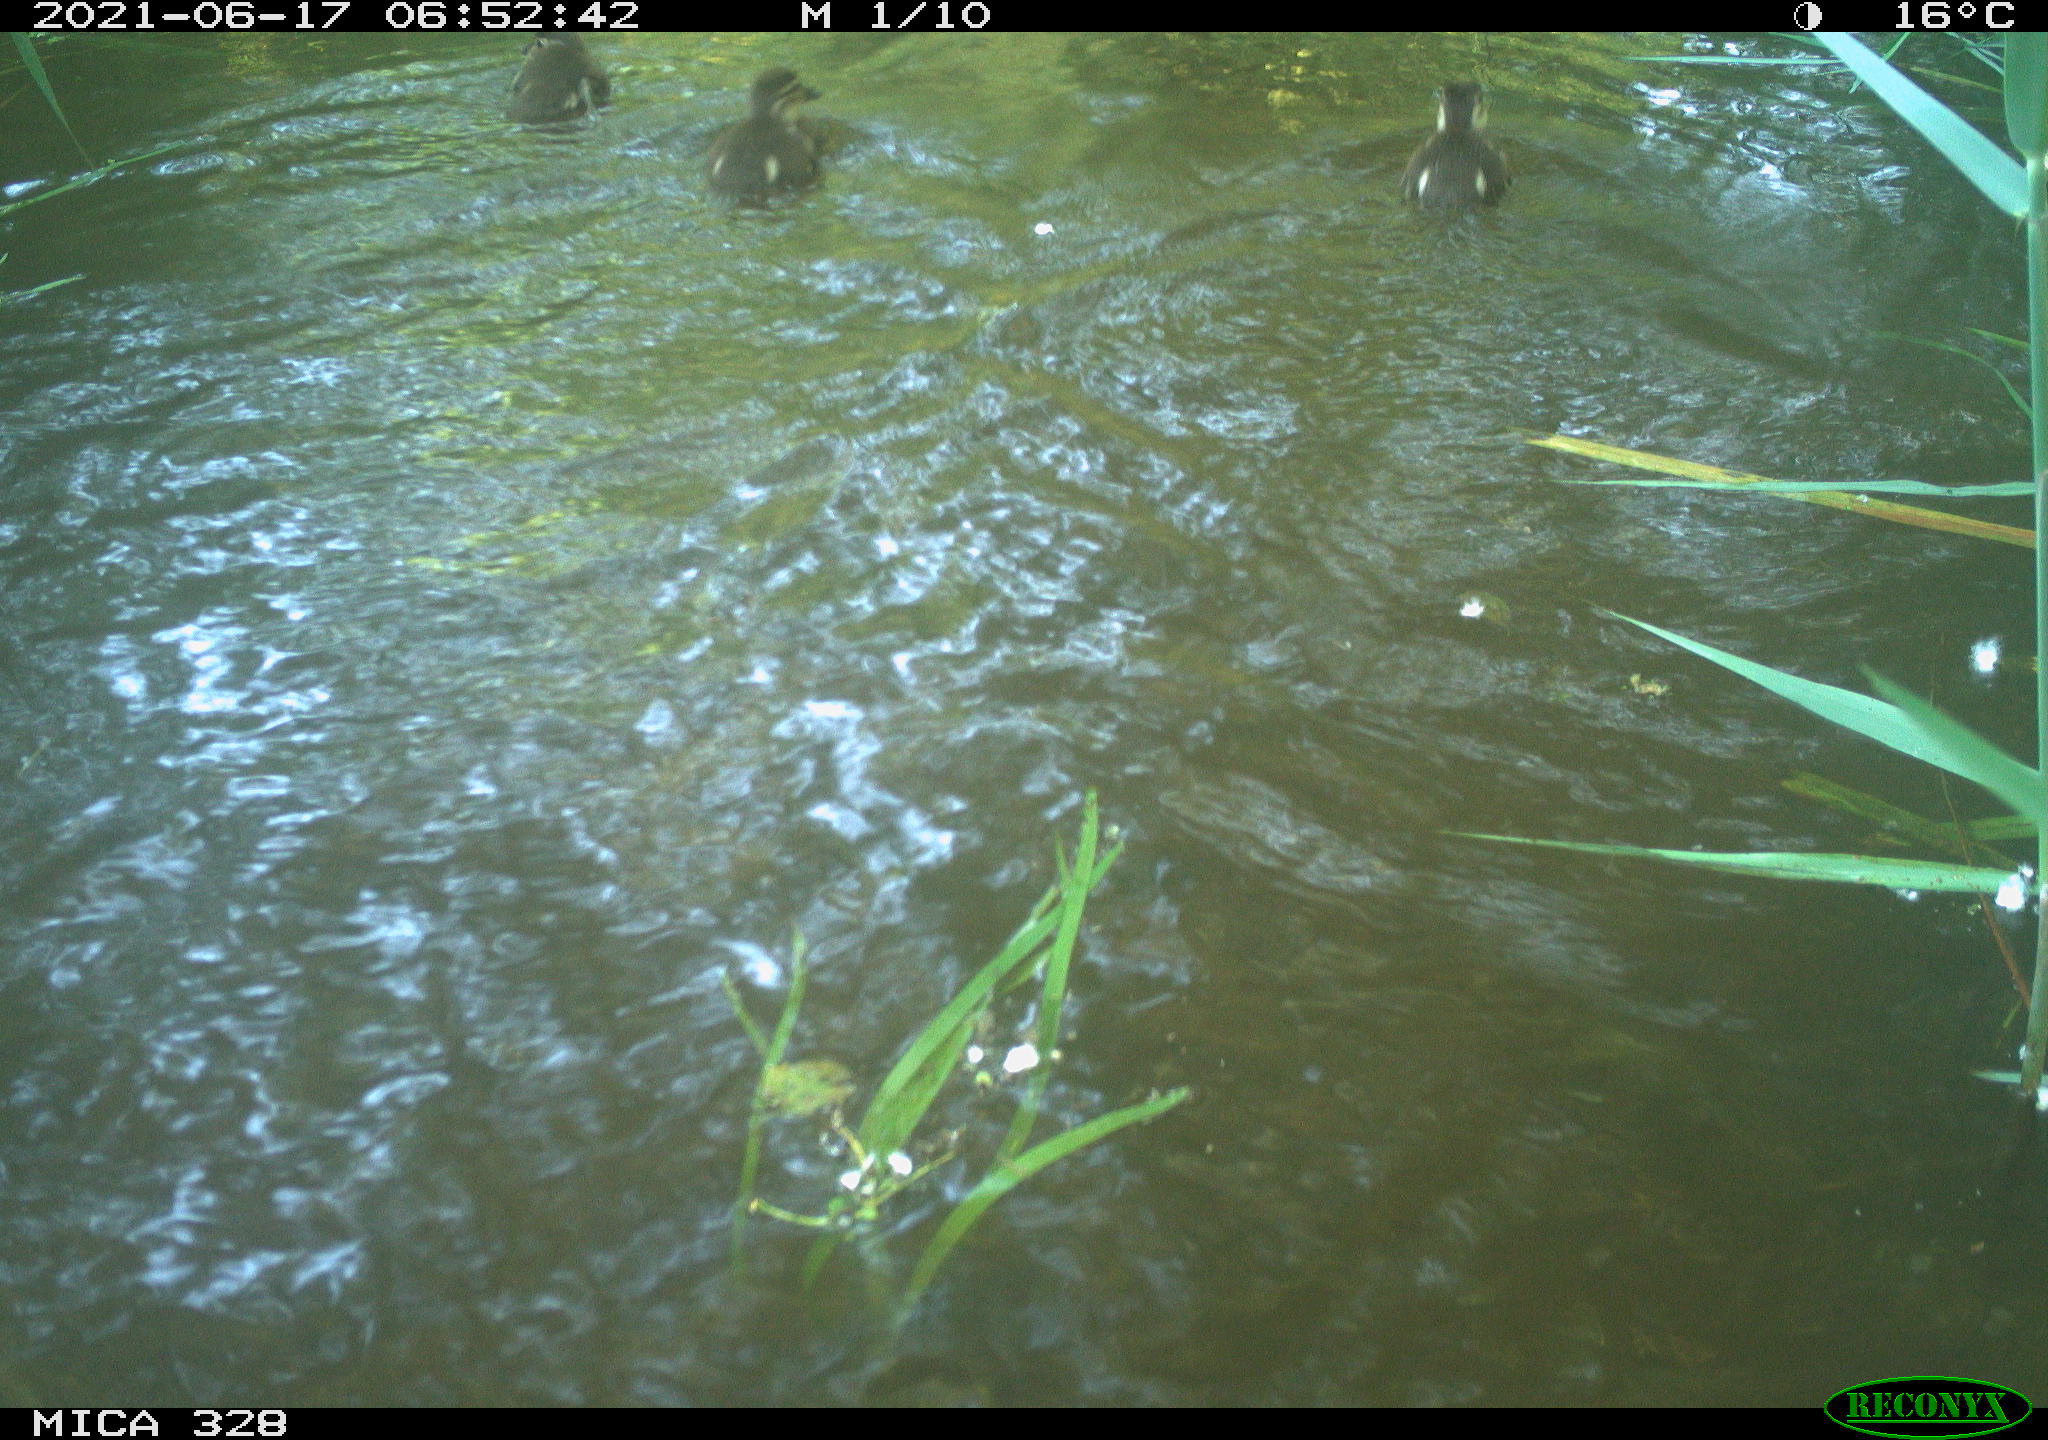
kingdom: Animalia
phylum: Chordata
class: Aves
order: Anseriformes
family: Anatidae
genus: Aix
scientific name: Aix galericulata
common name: Mandarin duck
